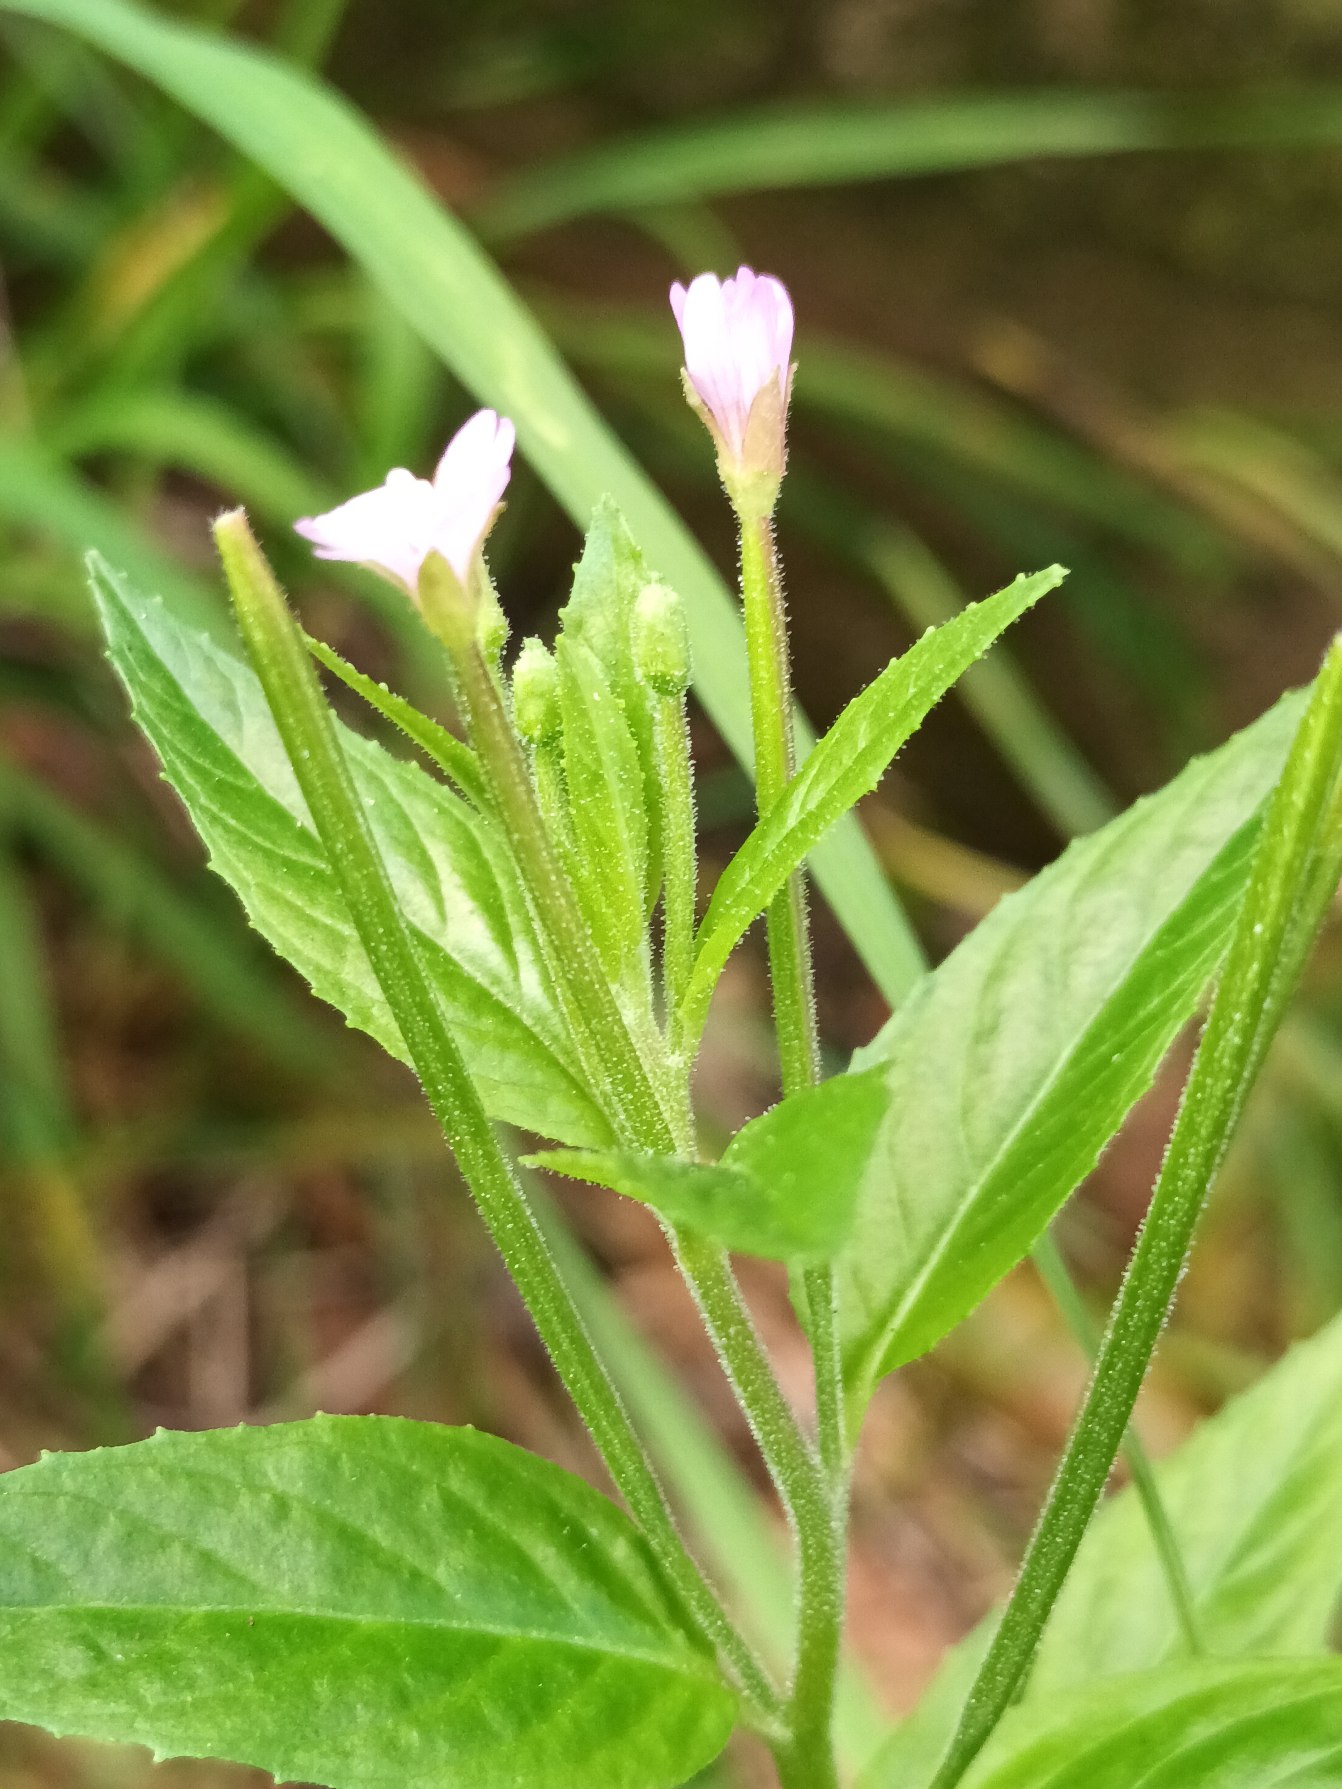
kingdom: Plantae
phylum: Tracheophyta
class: Magnoliopsida
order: Myrtales
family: Onagraceae
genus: Epilobium
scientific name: Epilobium ciliatum
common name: Alaska-dueurt
